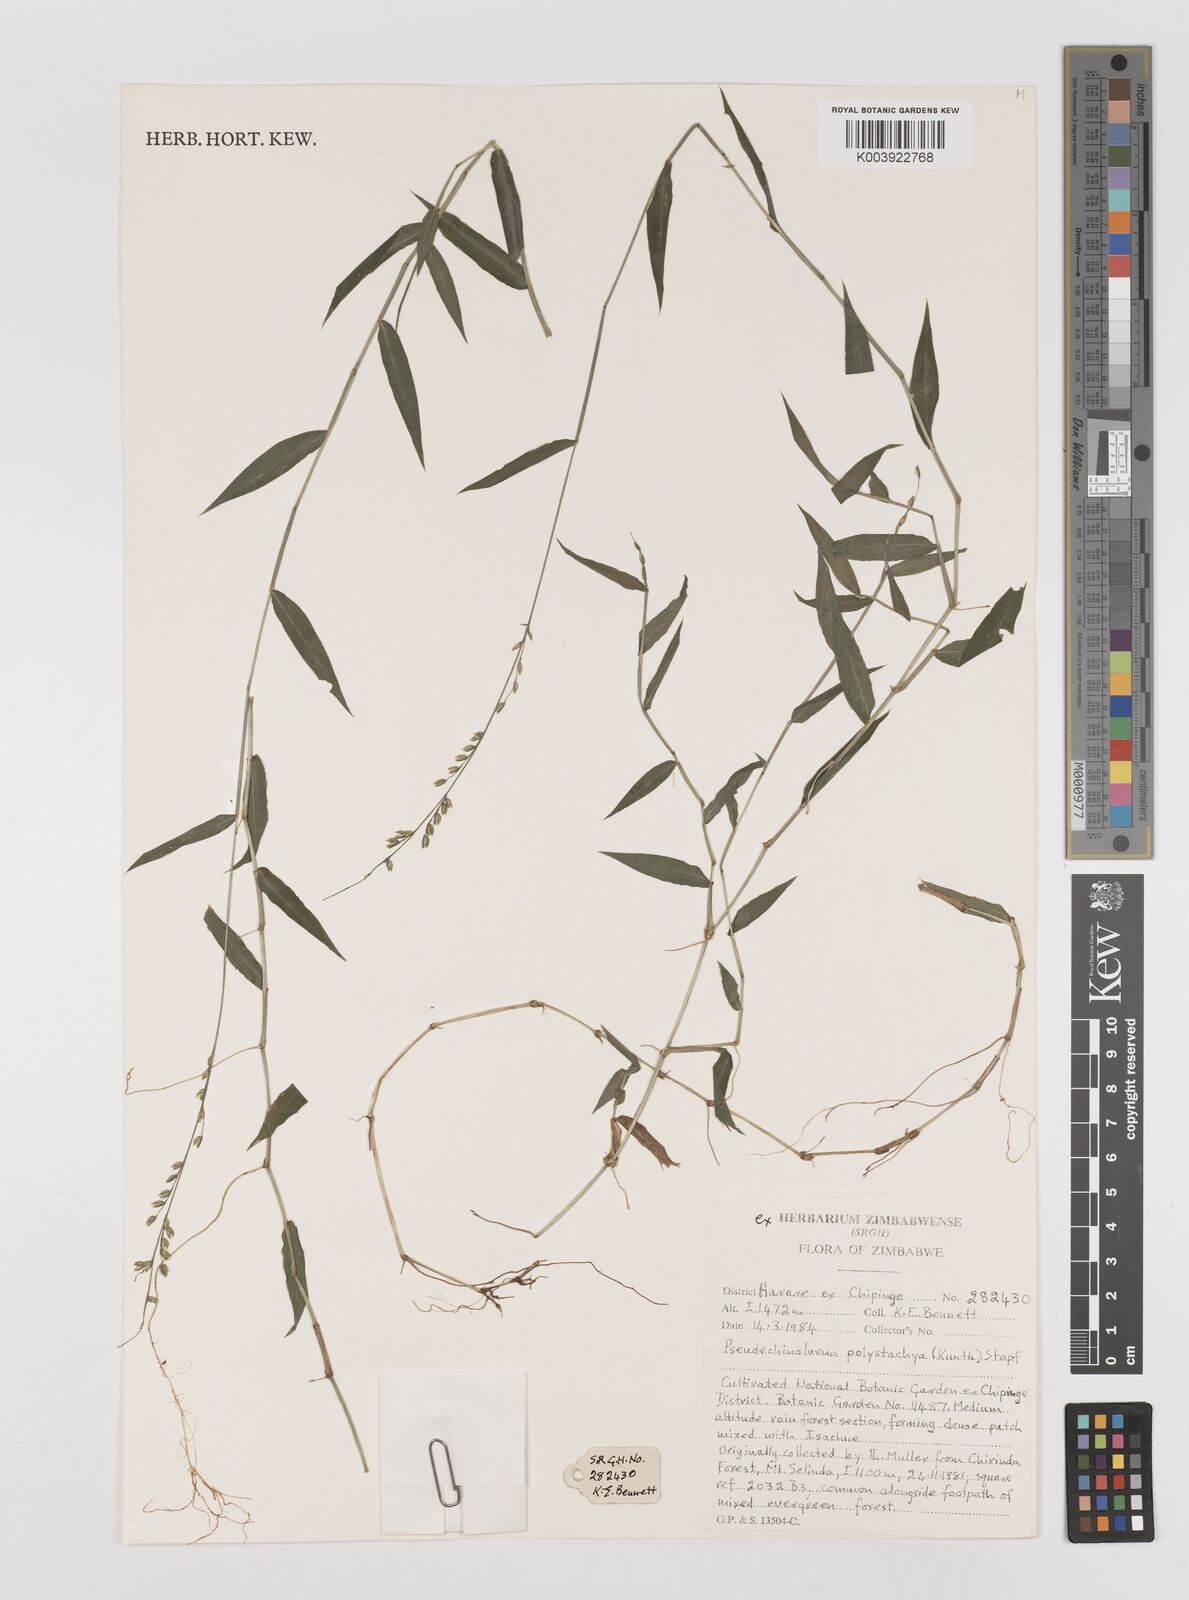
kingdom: Plantae
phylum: Tracheophyta
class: Liliopsida
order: Poales
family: Poaceae
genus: Pseudechinolaena
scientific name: Pseudechinolaena polystachya
